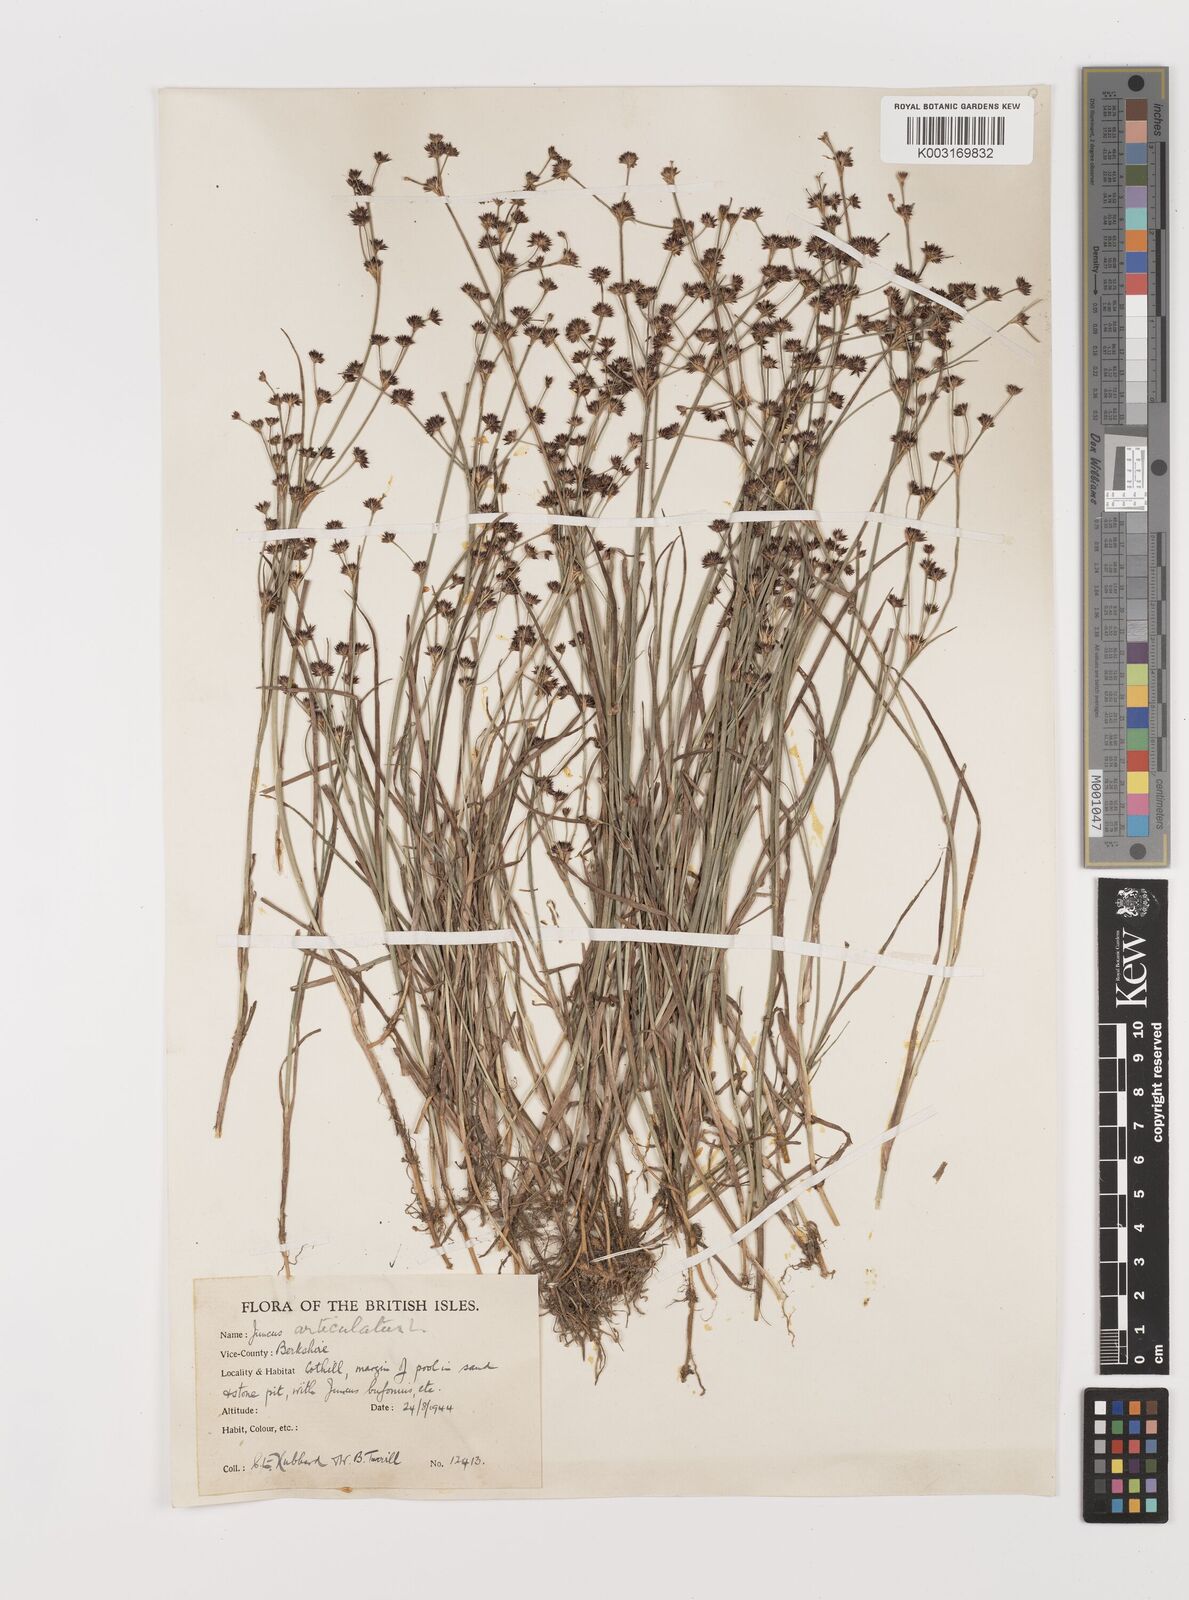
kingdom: Plantae
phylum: Tracheophyta
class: Liliopsida
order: Poales
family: Juncaceae
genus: Juncus
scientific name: Juncus articulatus
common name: Jointed rush
